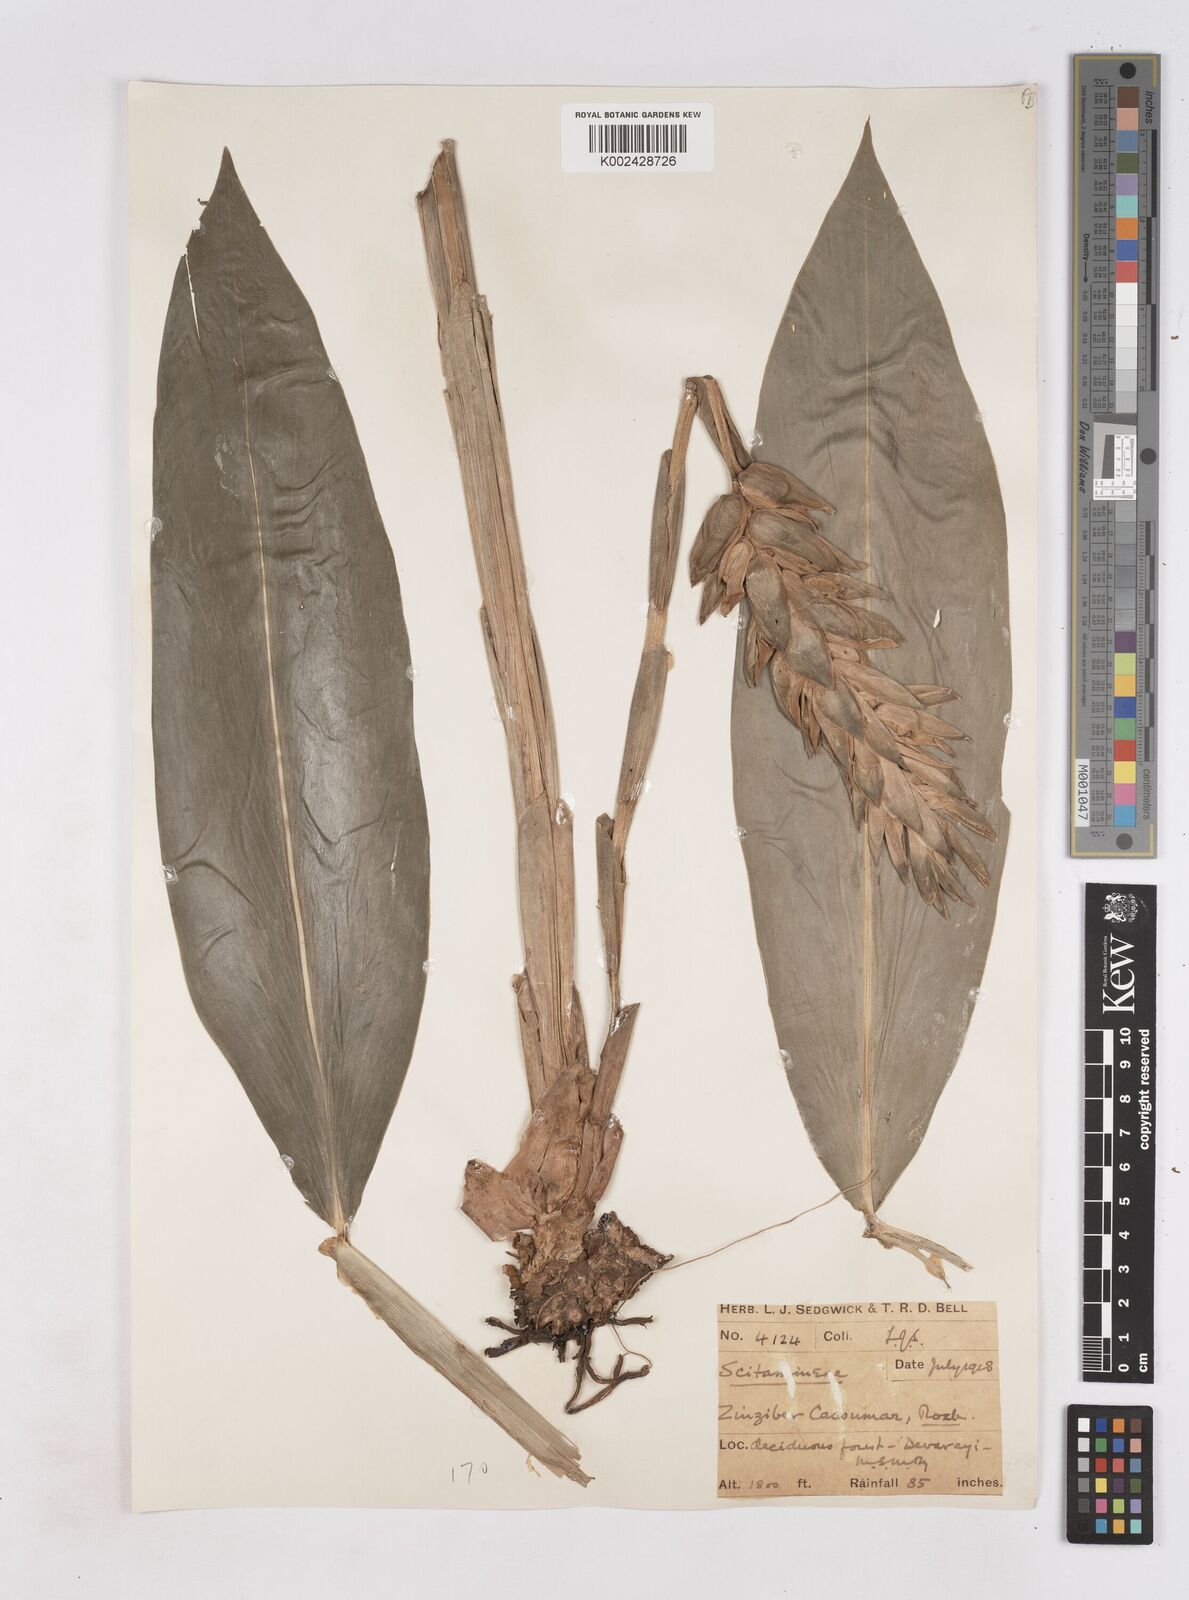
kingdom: Plantae
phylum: Tracheophyta
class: Liliopsida
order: Zingiberales
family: Zingiberaceae
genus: Zingiber
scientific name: Zingiber montanum
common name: Bengal ginger
